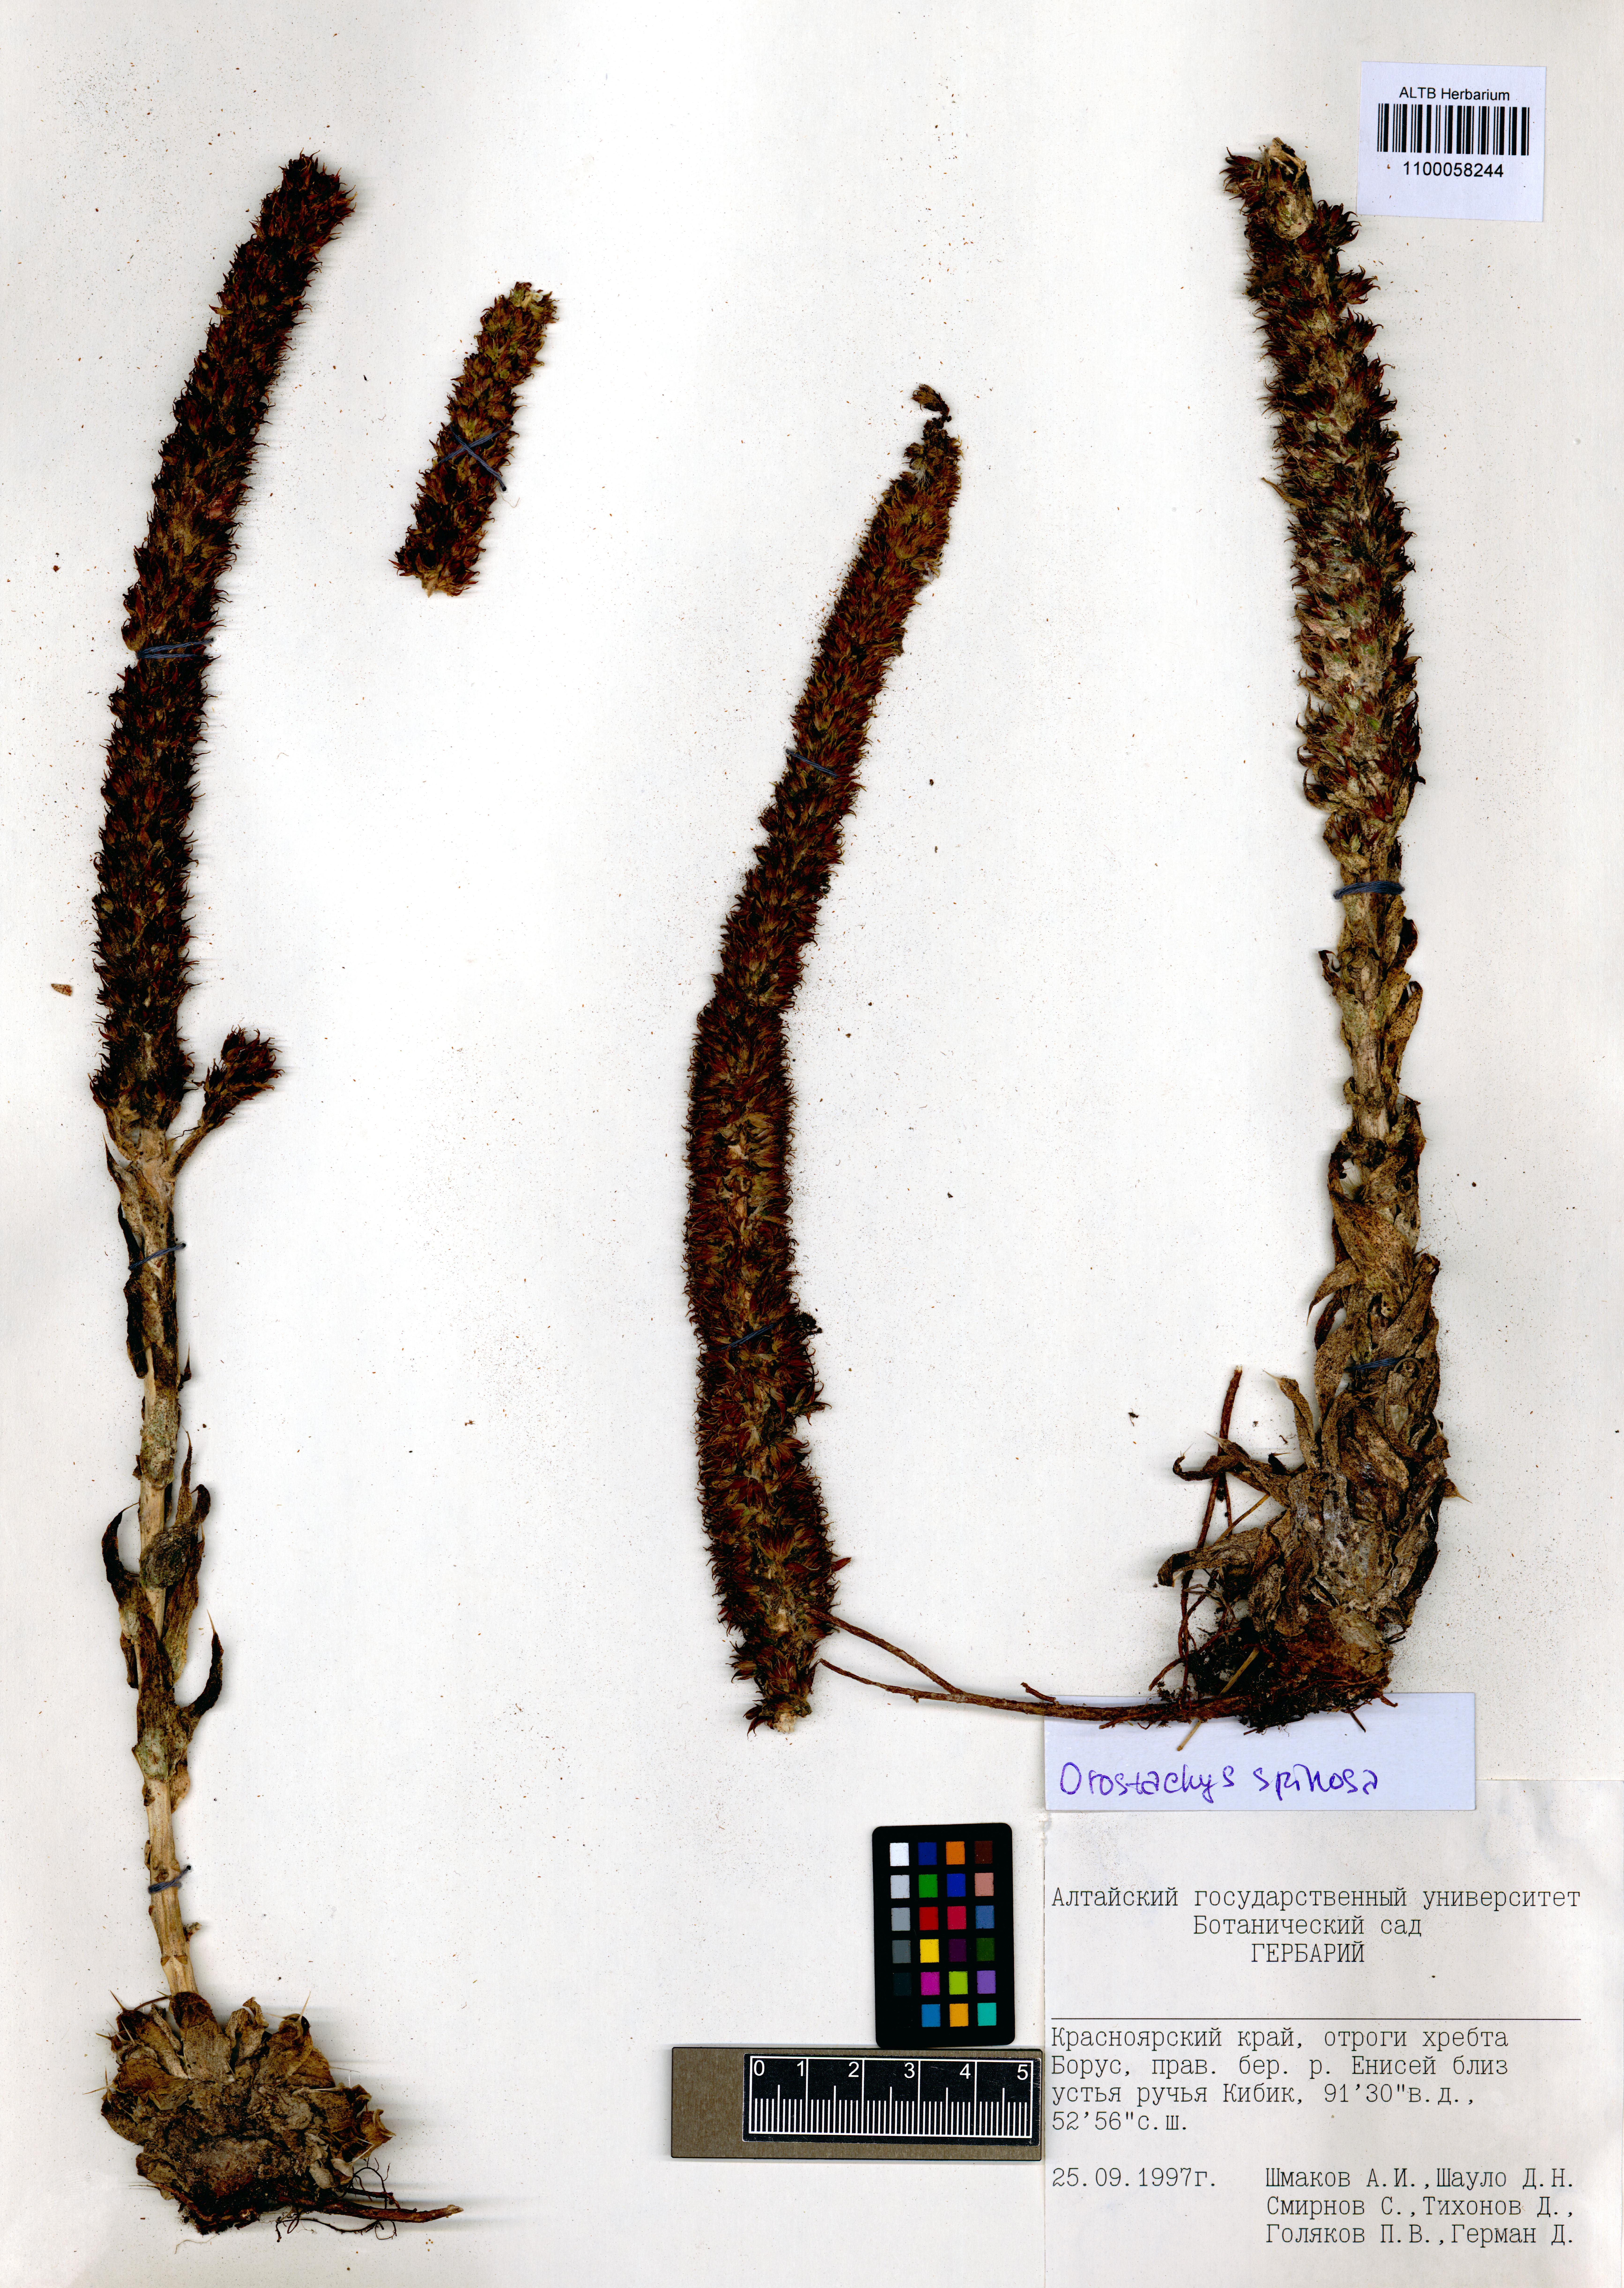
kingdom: Plantae
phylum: Tracheophyta
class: Magnoliopsida
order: Saxifragales
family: Crassulaceae
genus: Orostachys
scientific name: Orostachys spinosa
